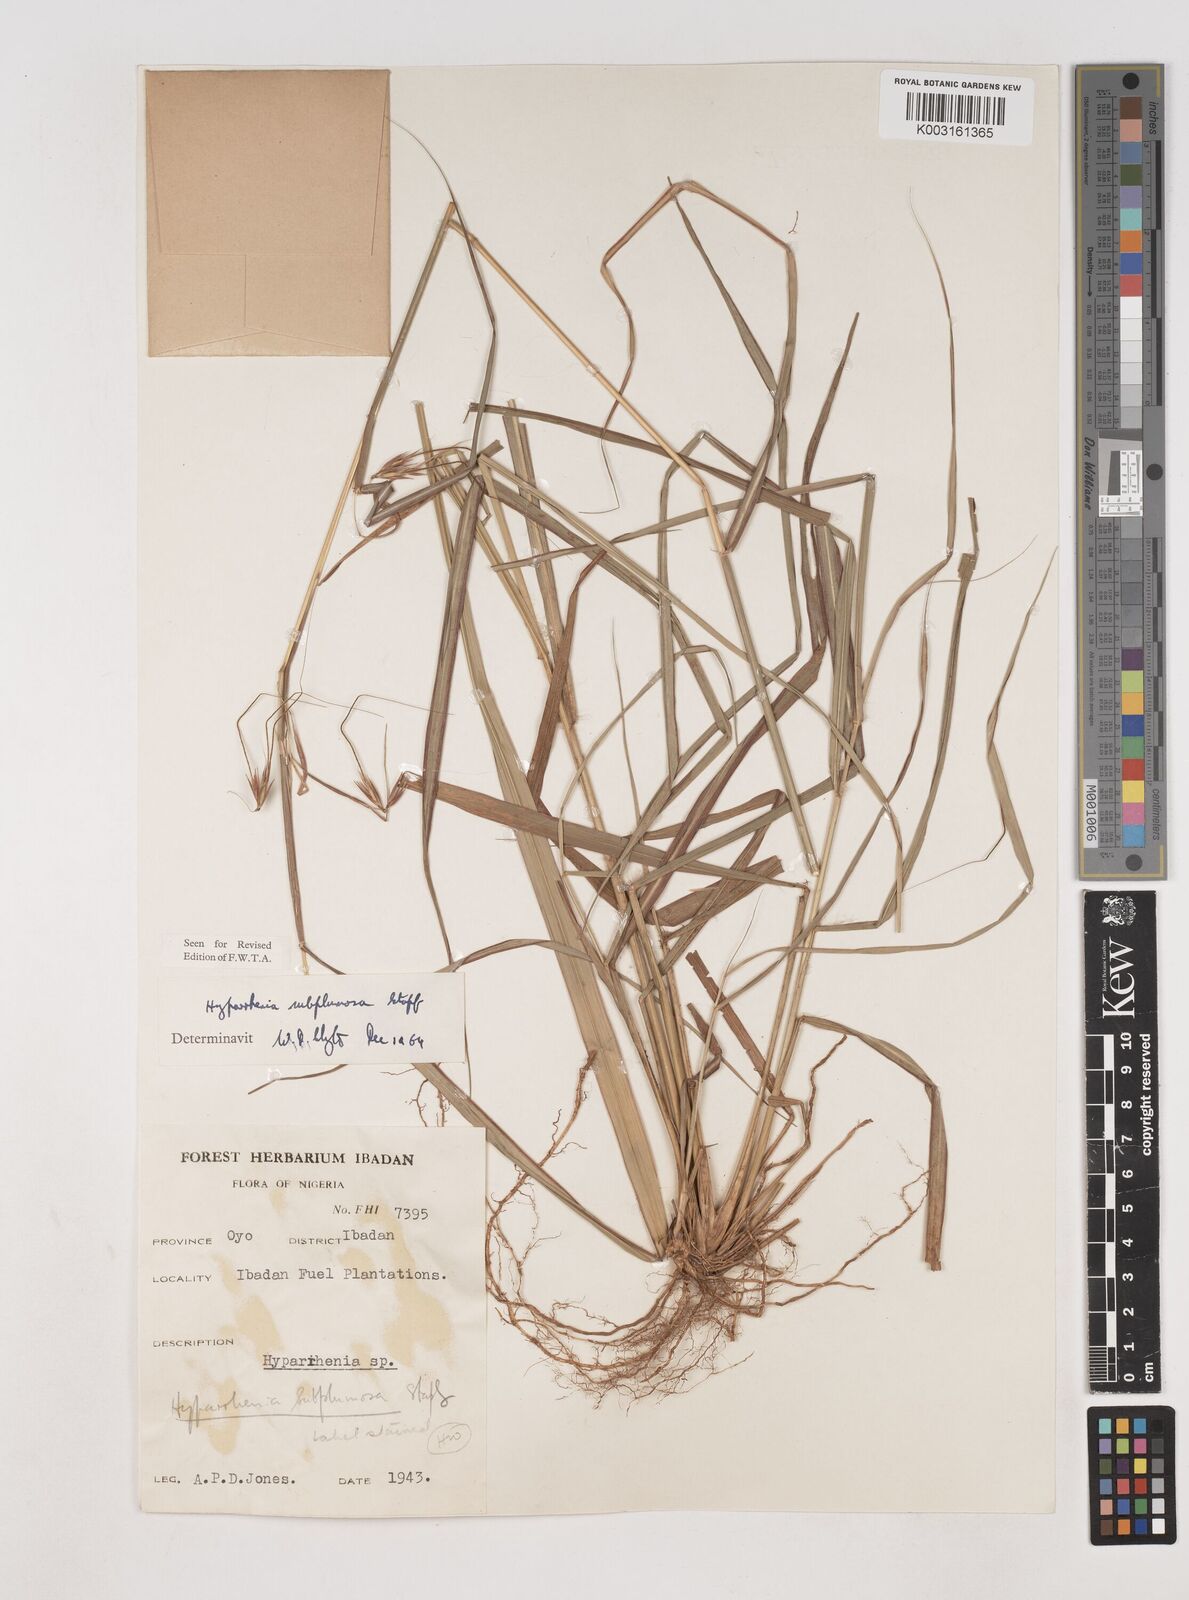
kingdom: Plantae
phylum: Tracheophyta
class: Liliopsida
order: Poales
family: Poaceae
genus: Hyparrhenia
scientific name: Hyparrhenia subplumosa
